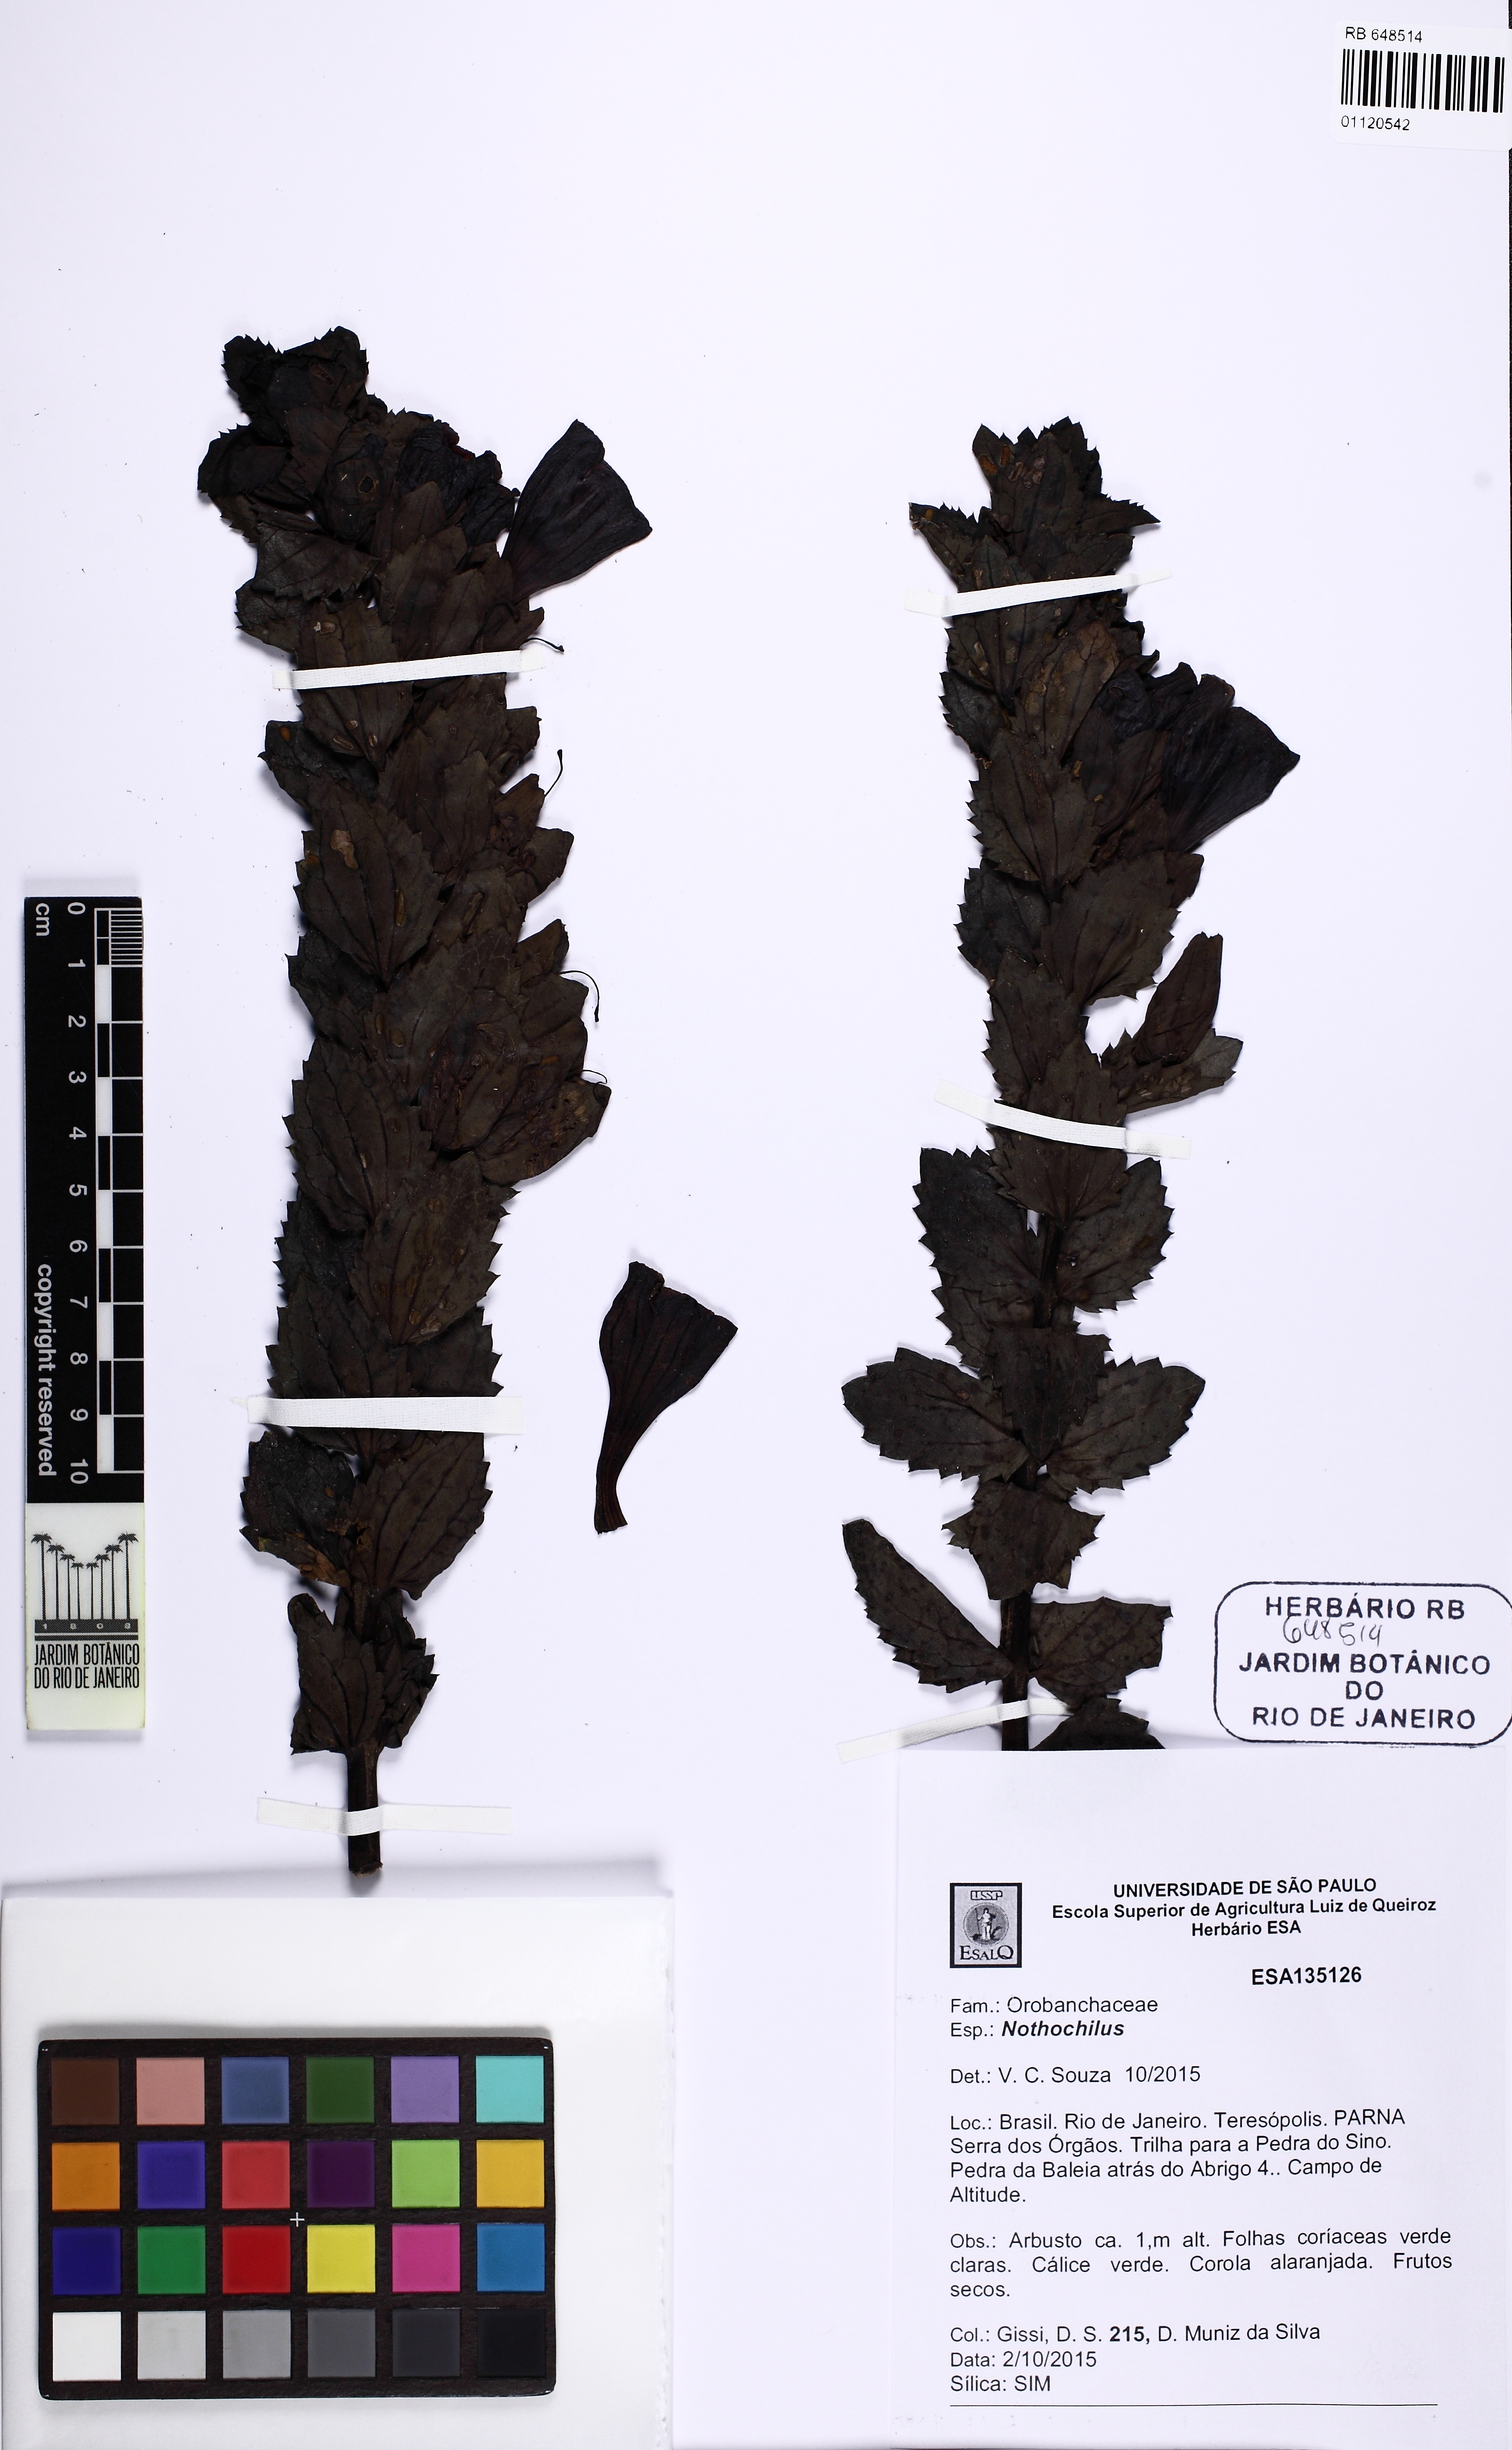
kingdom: Plantae
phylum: Tracheophyta
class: Magnoliopsida
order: Lamiales
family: Orobanchaceae
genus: Nothochilus
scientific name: Nothochilus
